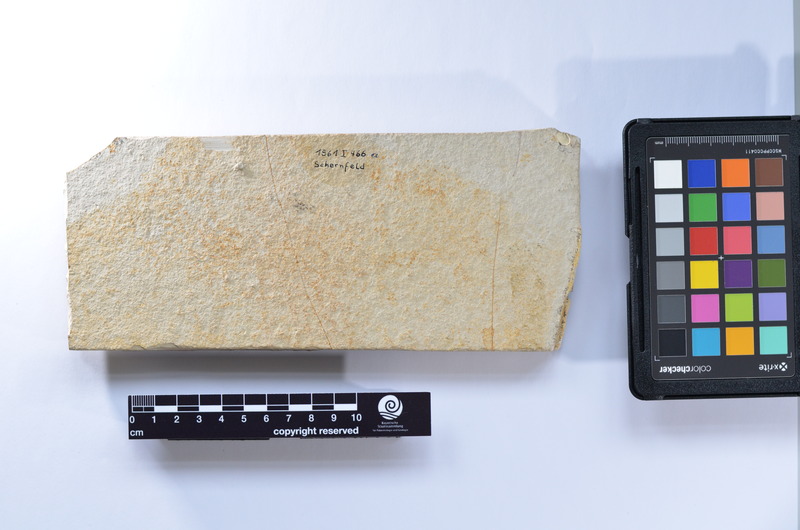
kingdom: Animalia
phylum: Chordata
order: Elopiformes
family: Anaethalionidae
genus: Anaethalion
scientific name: Anaethalion knorri
